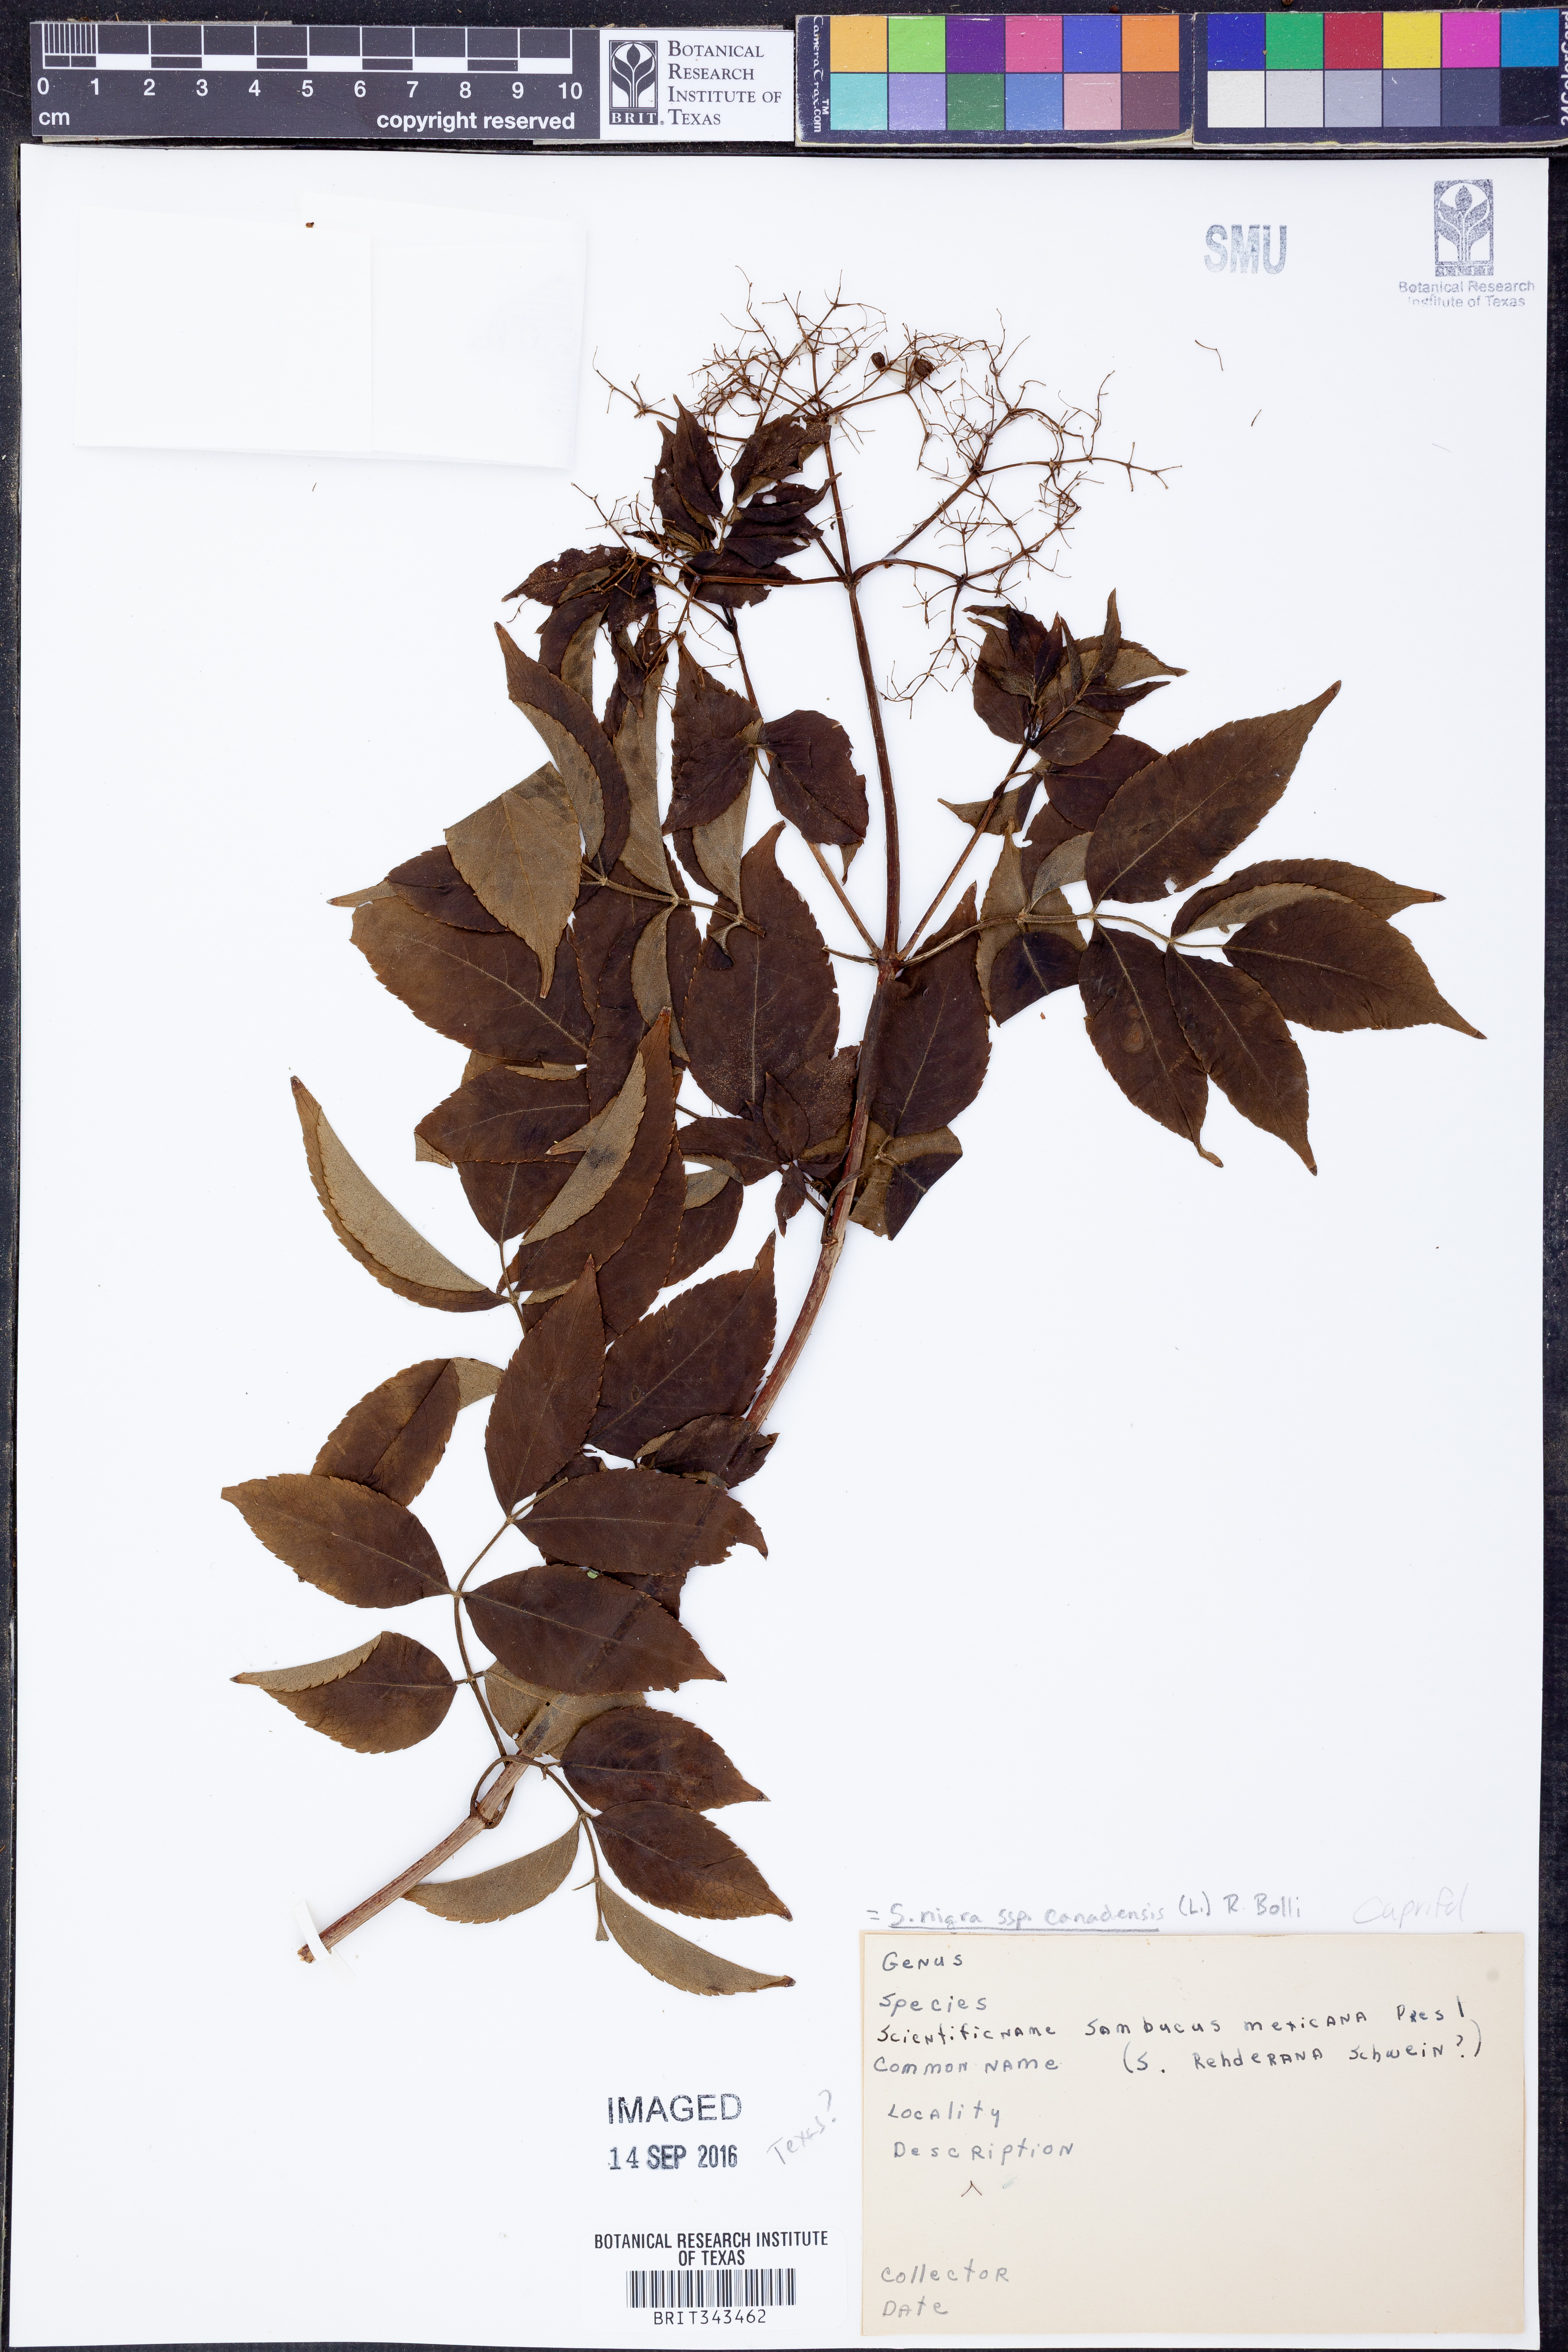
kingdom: Plantae
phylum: Tracheophyta
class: Magnoliopsida
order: Dipsacales
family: Viburnaceae
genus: Sambucus
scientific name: Sambucus canadensis
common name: American elder
